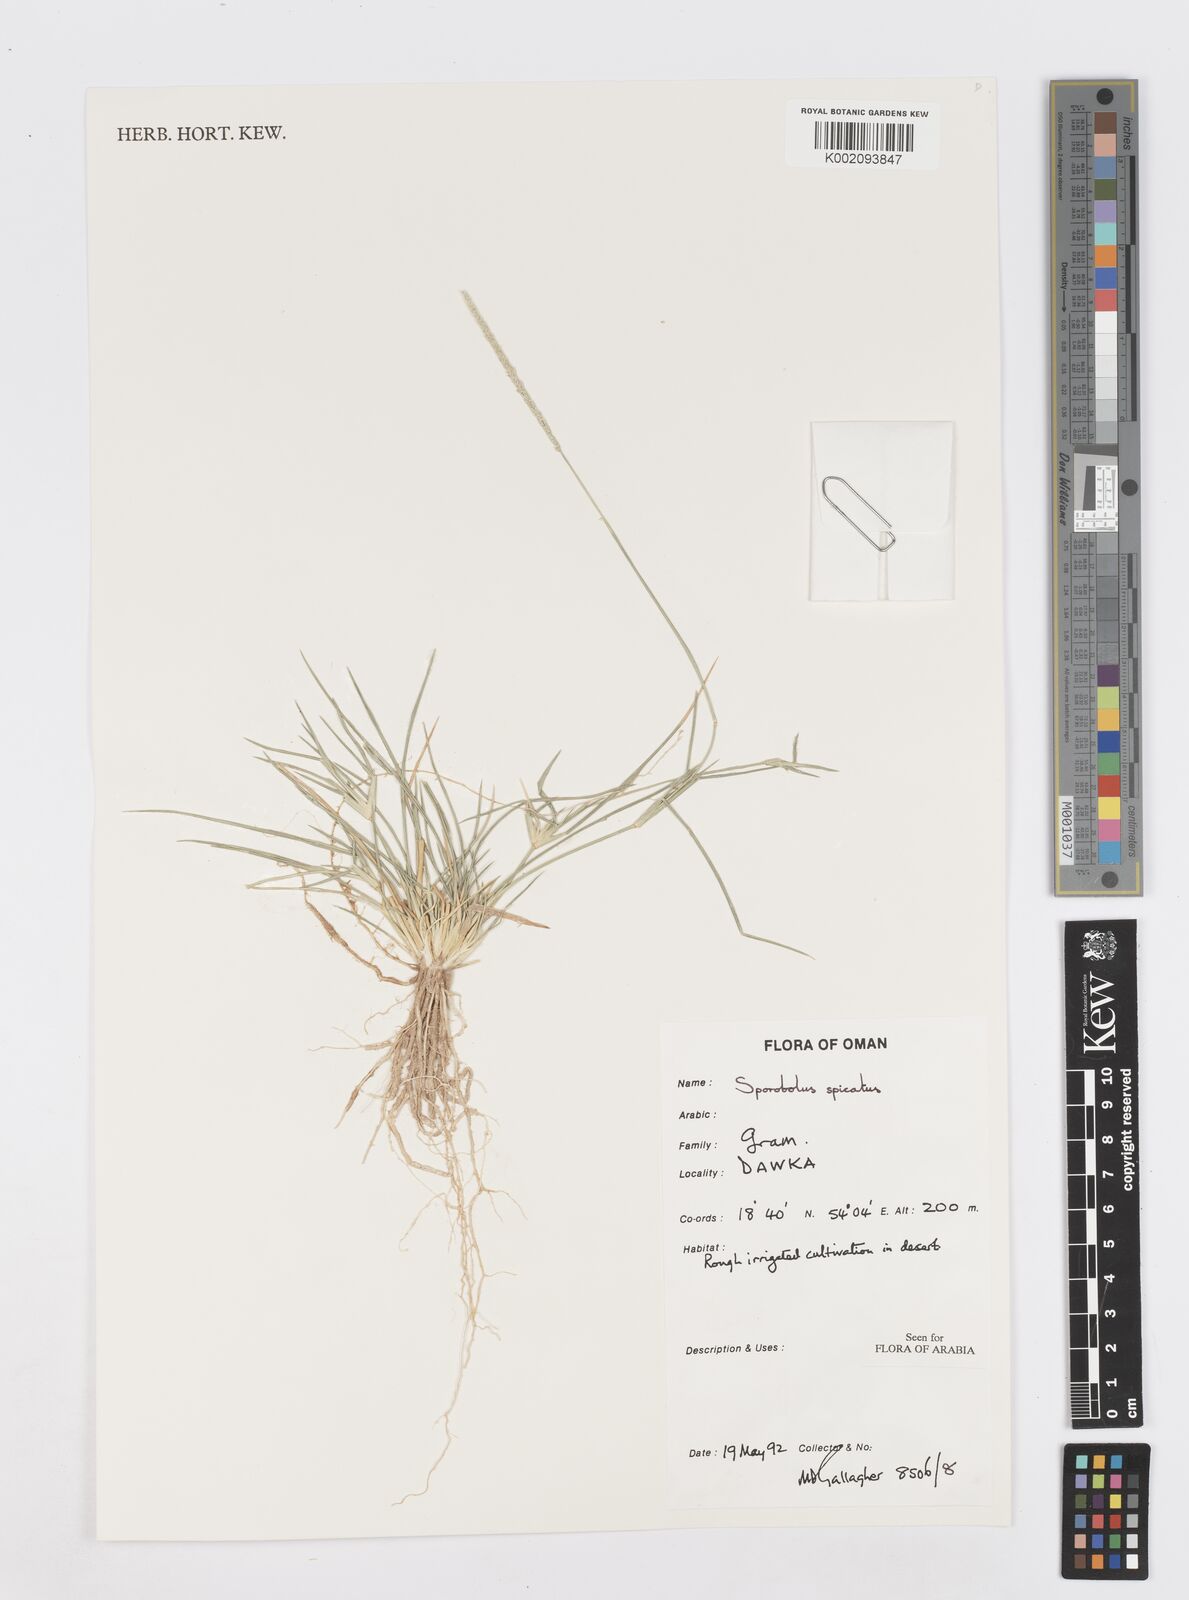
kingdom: Plantae
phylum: Tracheophyta
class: Liliopsida
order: Poales
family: Poaceae
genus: Sporobolus
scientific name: Sporobolus spicatus
